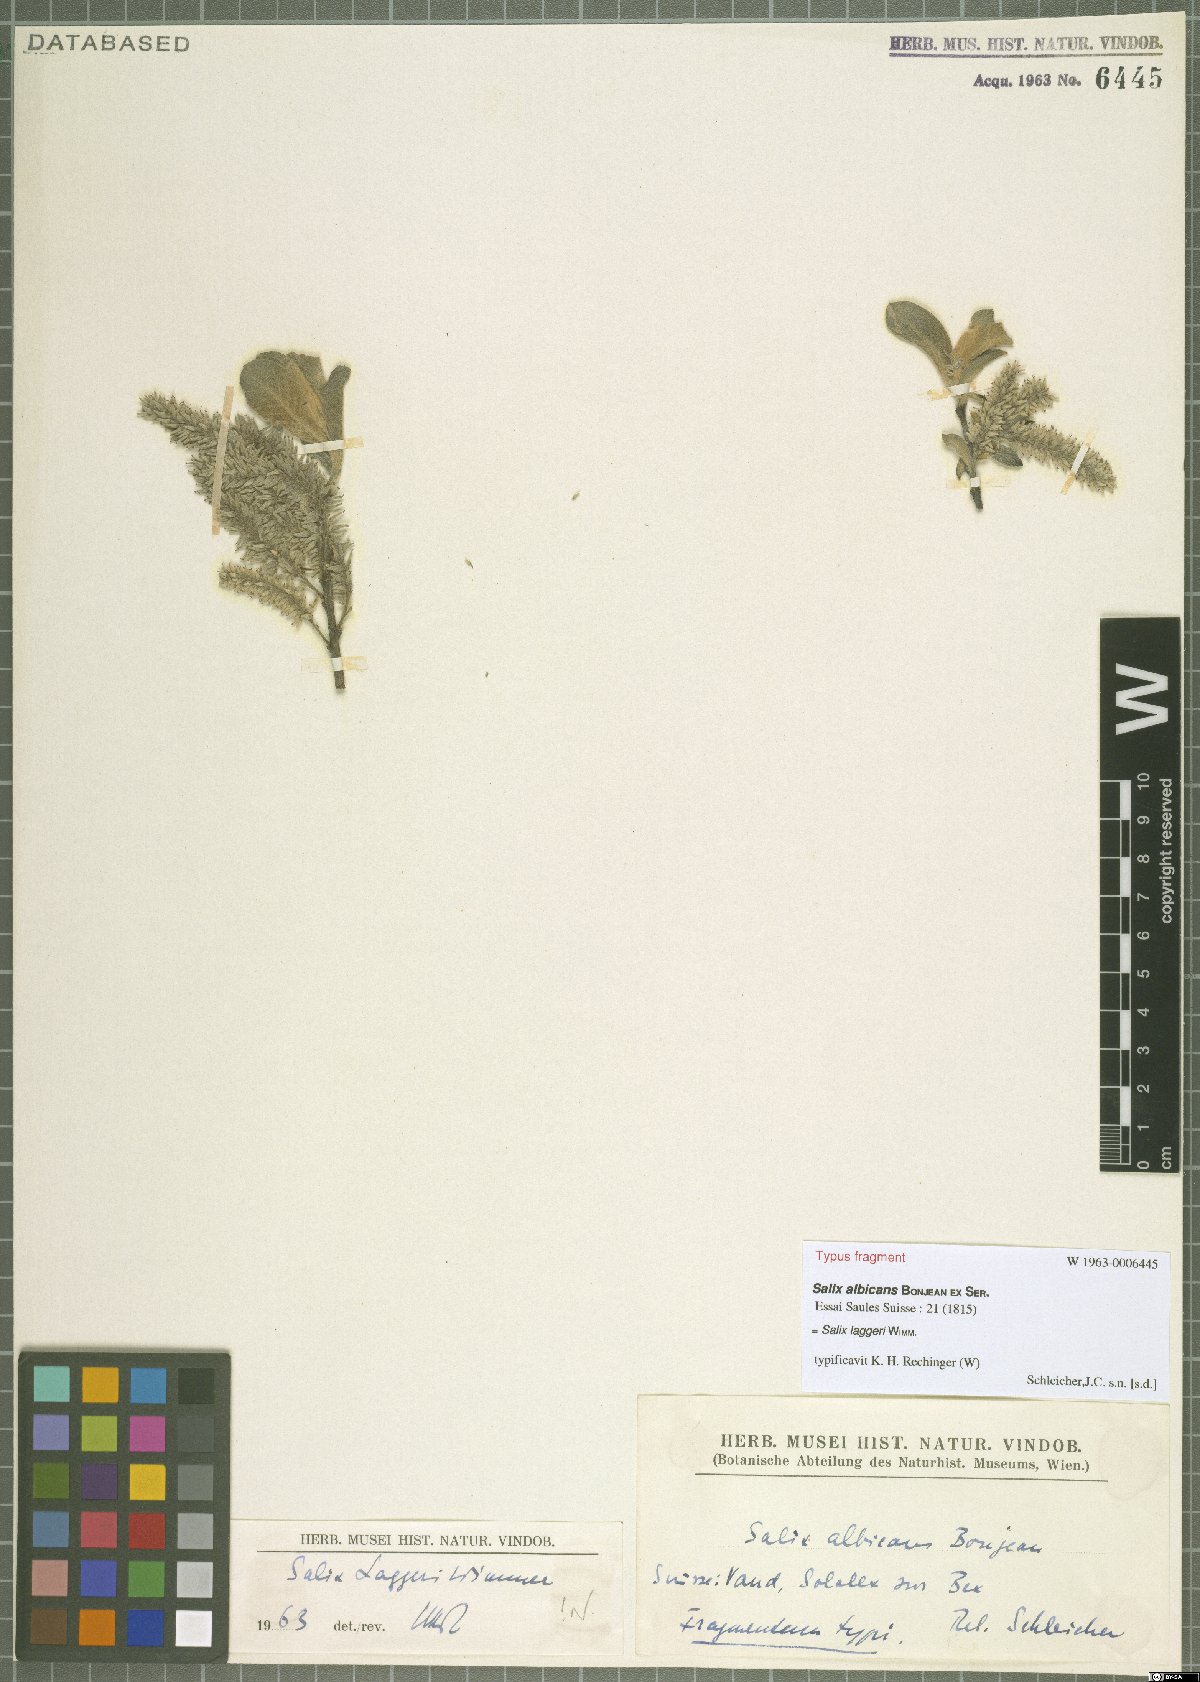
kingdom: Plantae
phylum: Tracheophyta
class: Magnoliopsida
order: Malpighiales
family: Salicaceae
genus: Salix
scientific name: Salix laggeri
